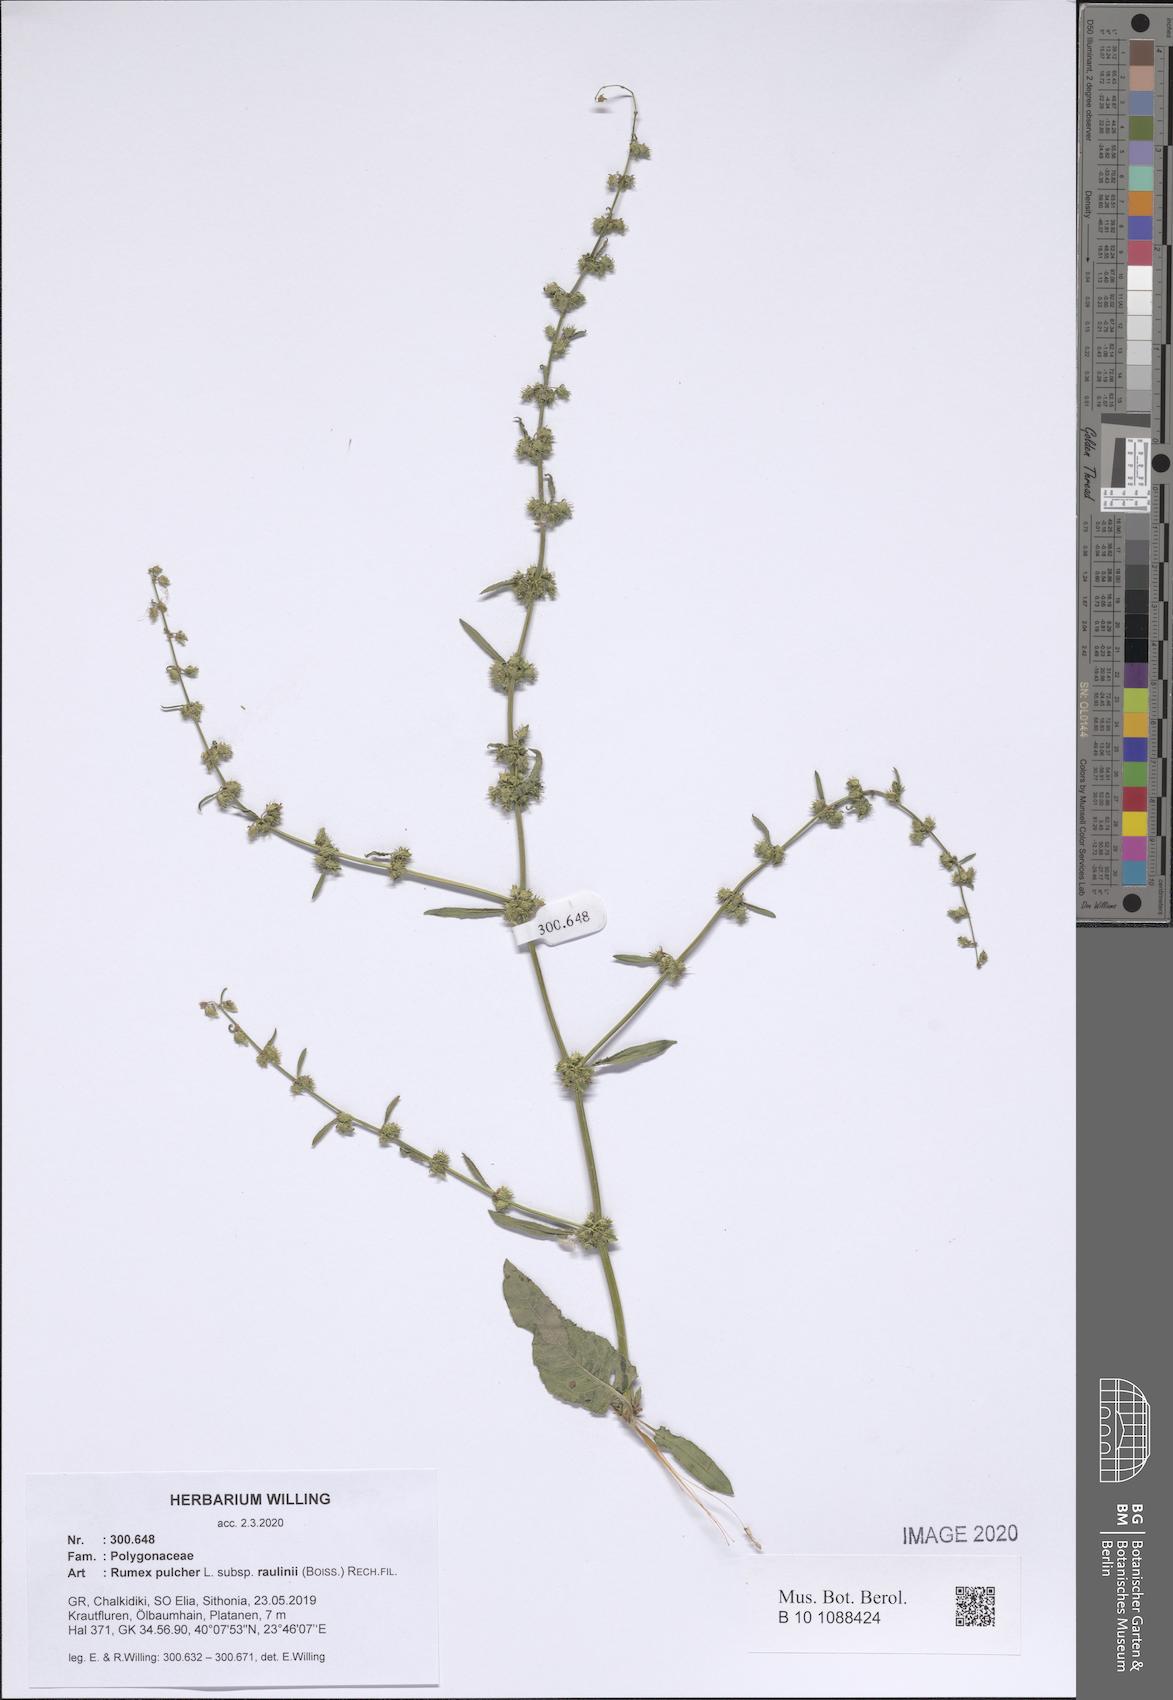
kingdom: Plantae
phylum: Tracheophyta
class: Magnoliopsida
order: Caryophyllales
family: Polygonaceae
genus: Rumex
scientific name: Rumex pulcher
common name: Fiddle dock
